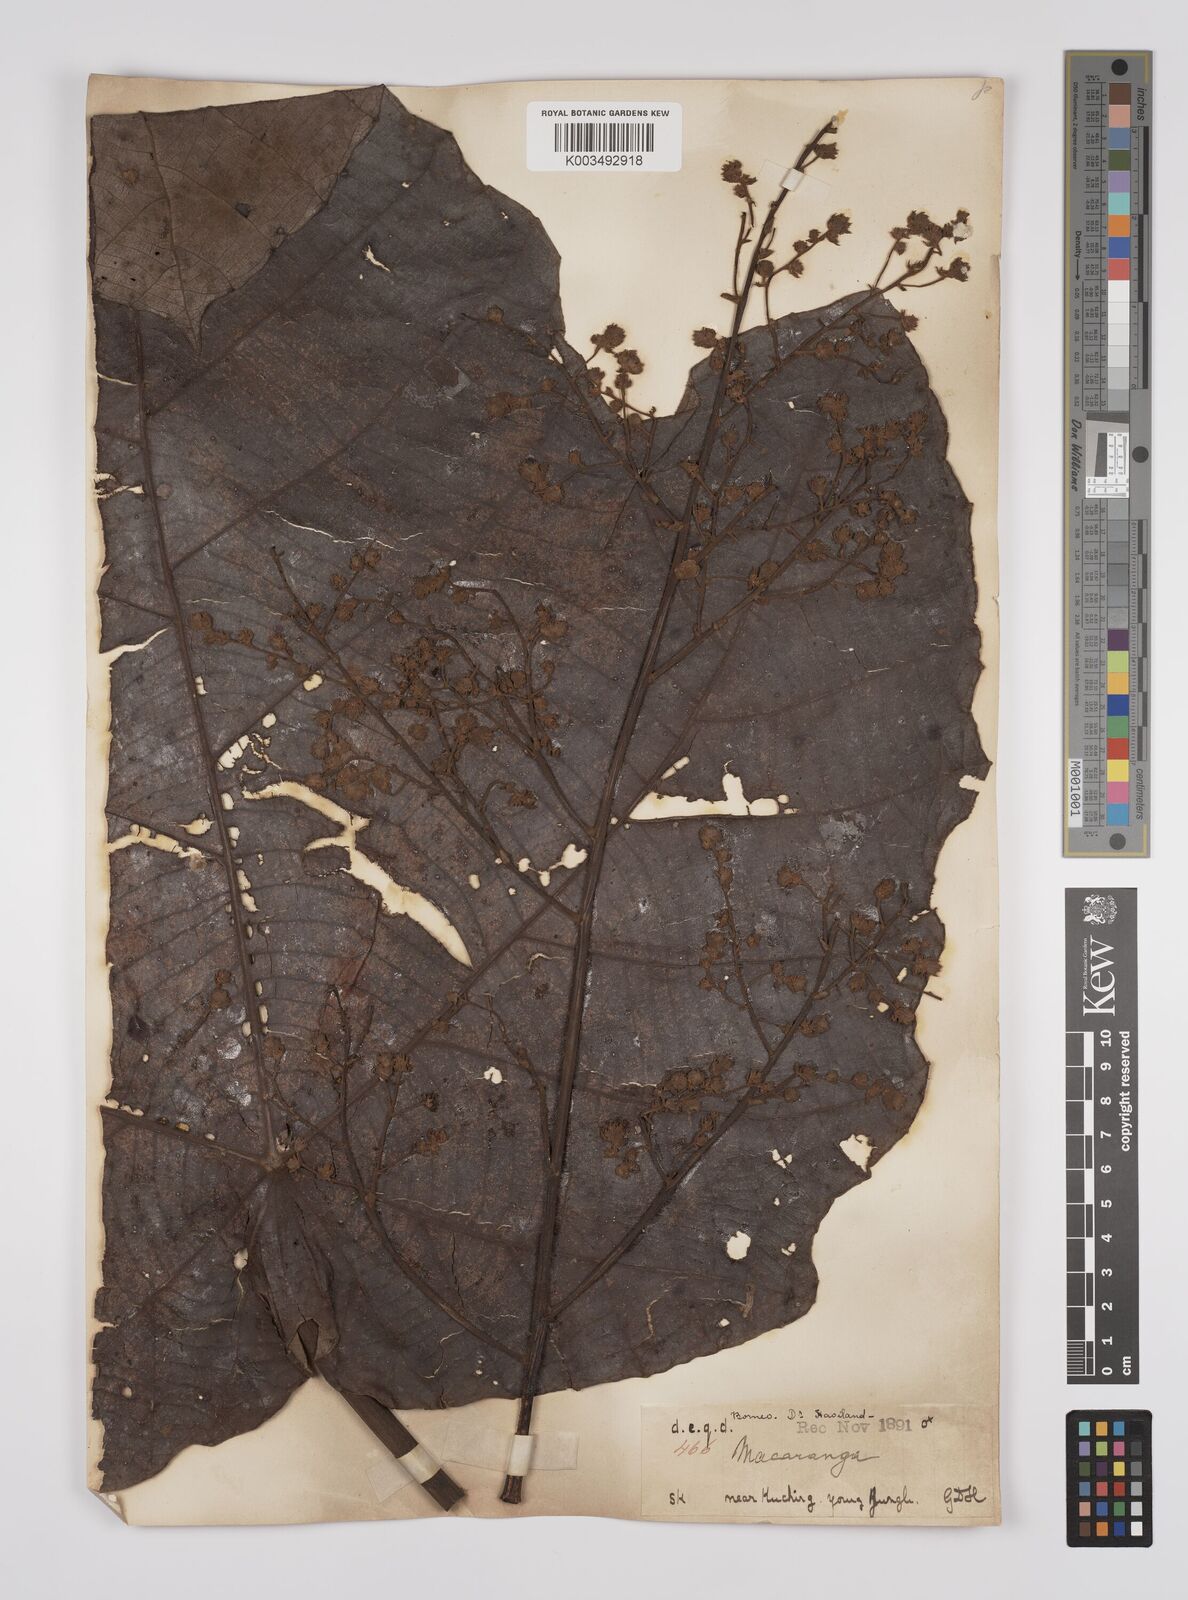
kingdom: Plantae
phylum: Tracheophyta
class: Magnoliopsida
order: Malpighiales
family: Euphorbiaceae
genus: Macaranga
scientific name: Macaranga gigantea
